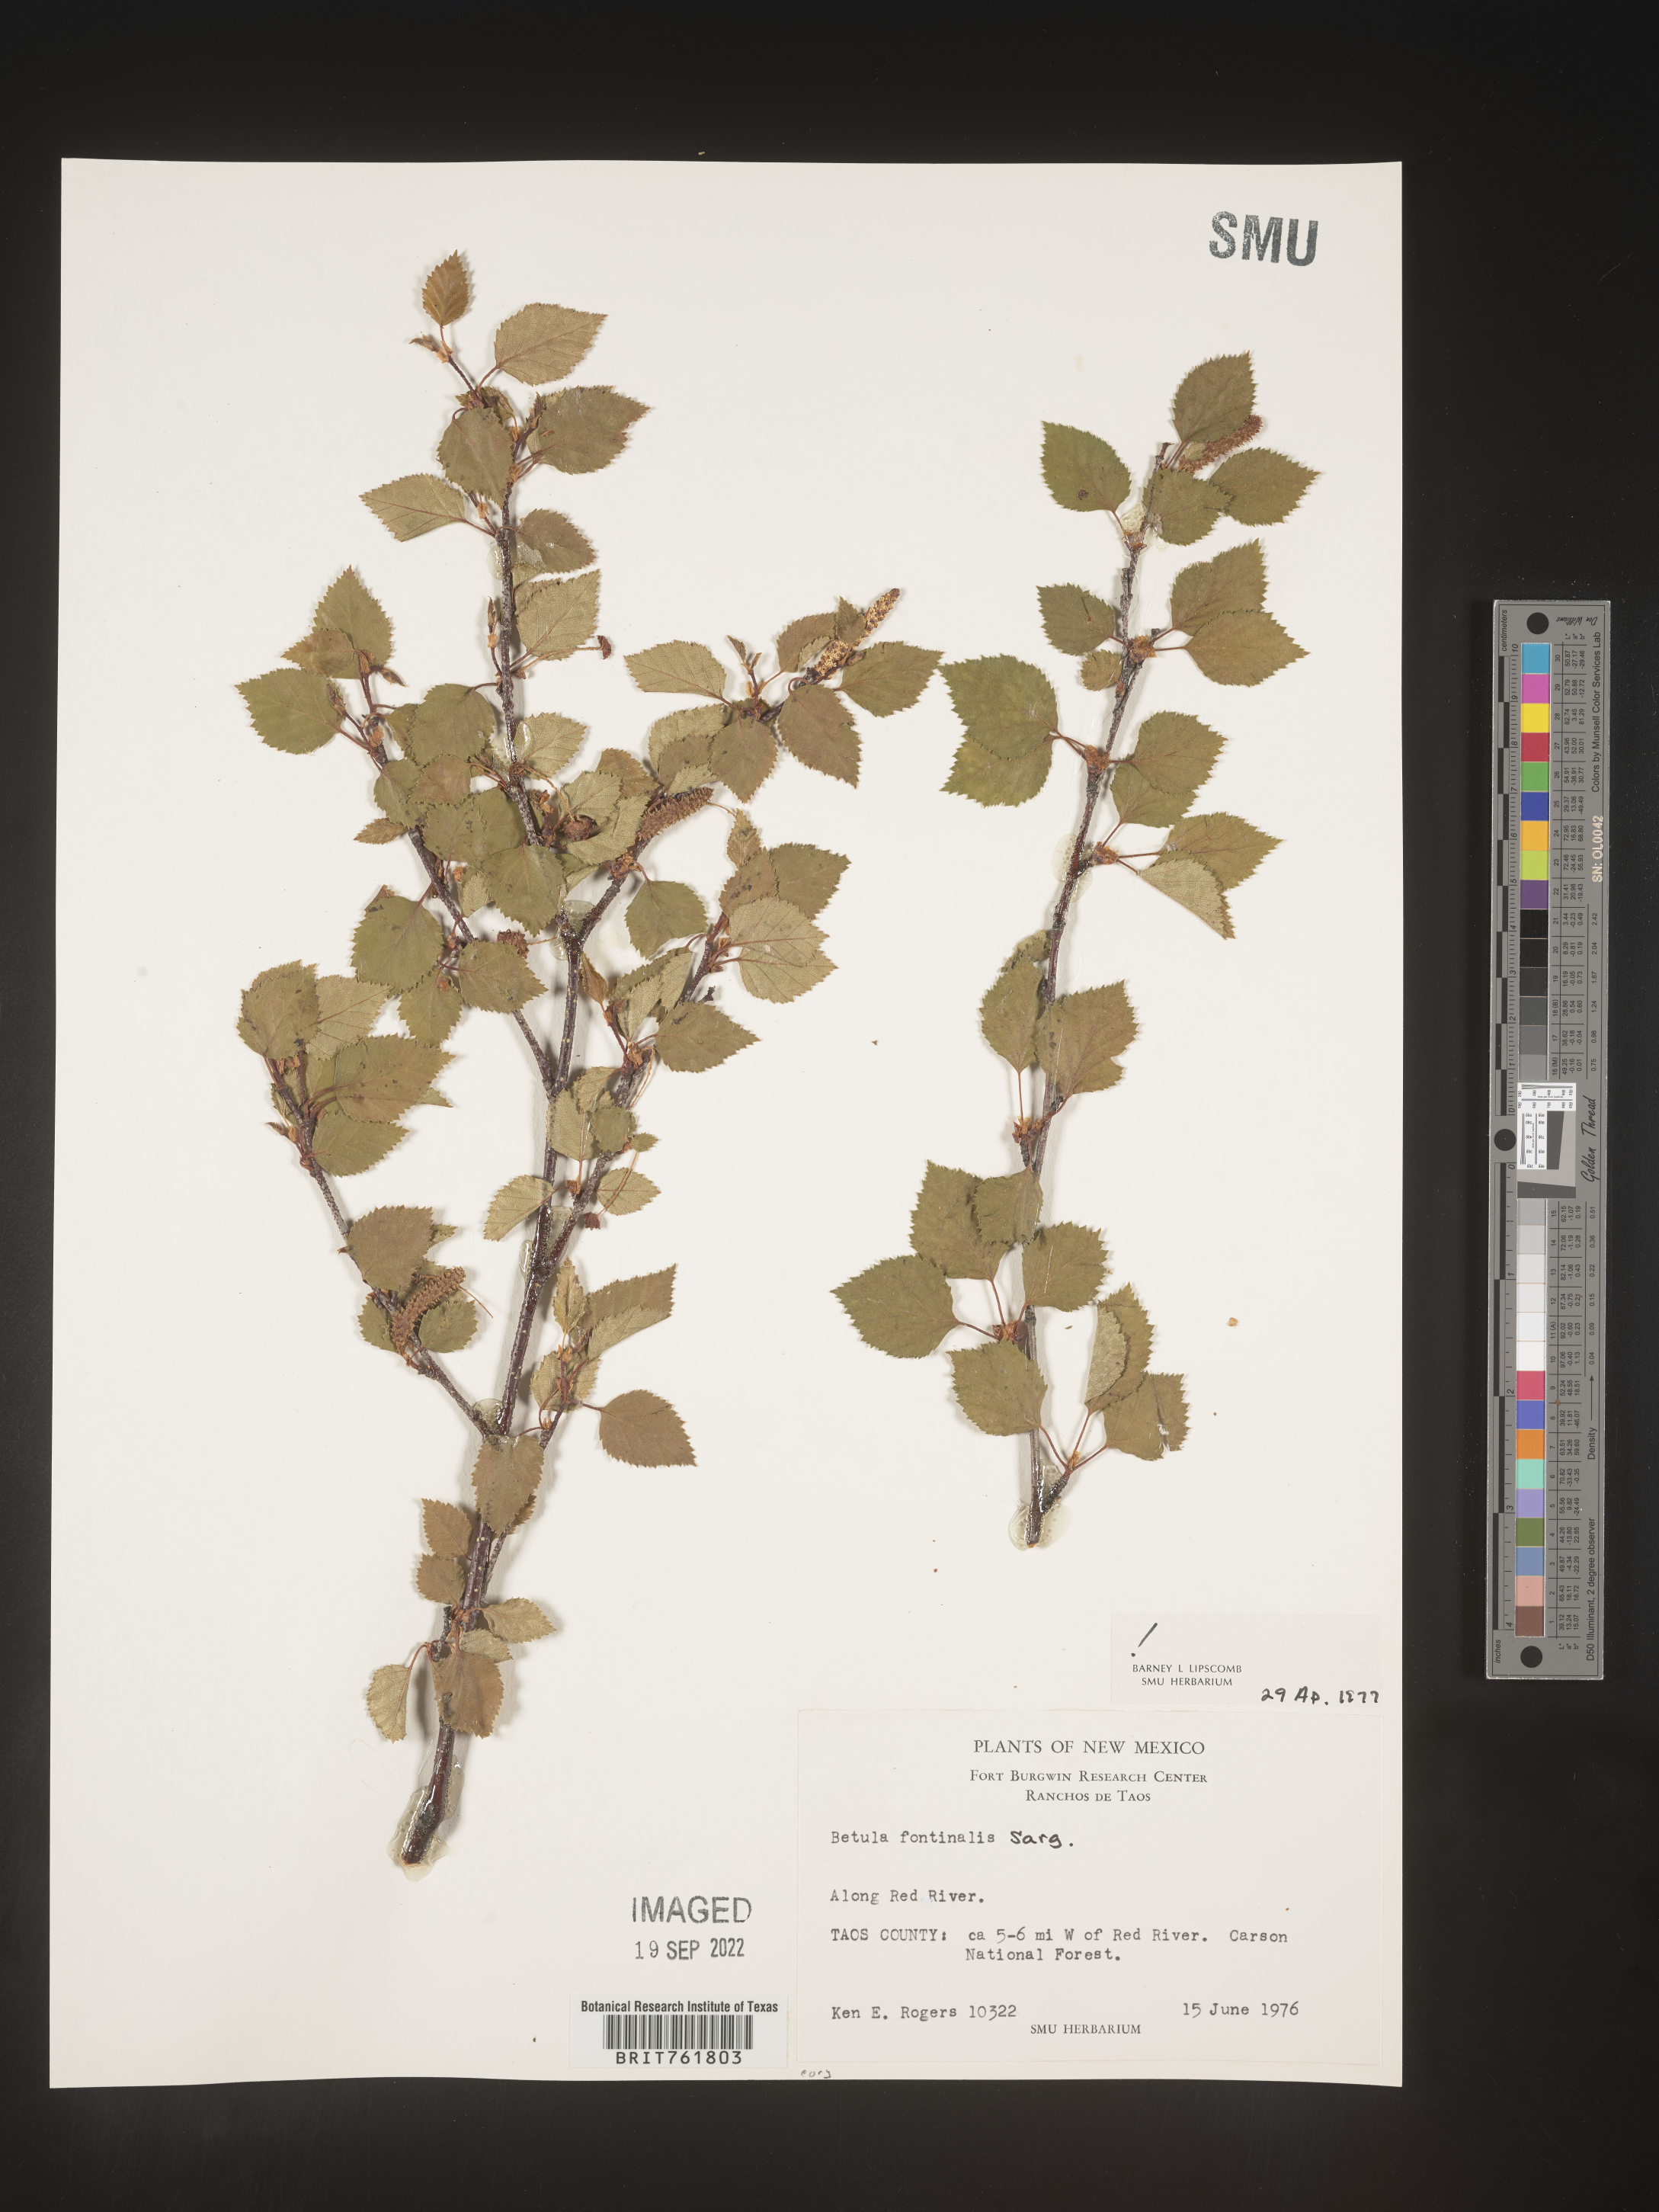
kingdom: Plantae
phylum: Tracheophyta
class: Magnoliopsida
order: Fagales
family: Betulaceae
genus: Betula
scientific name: Betula occidentalis
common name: River birch
